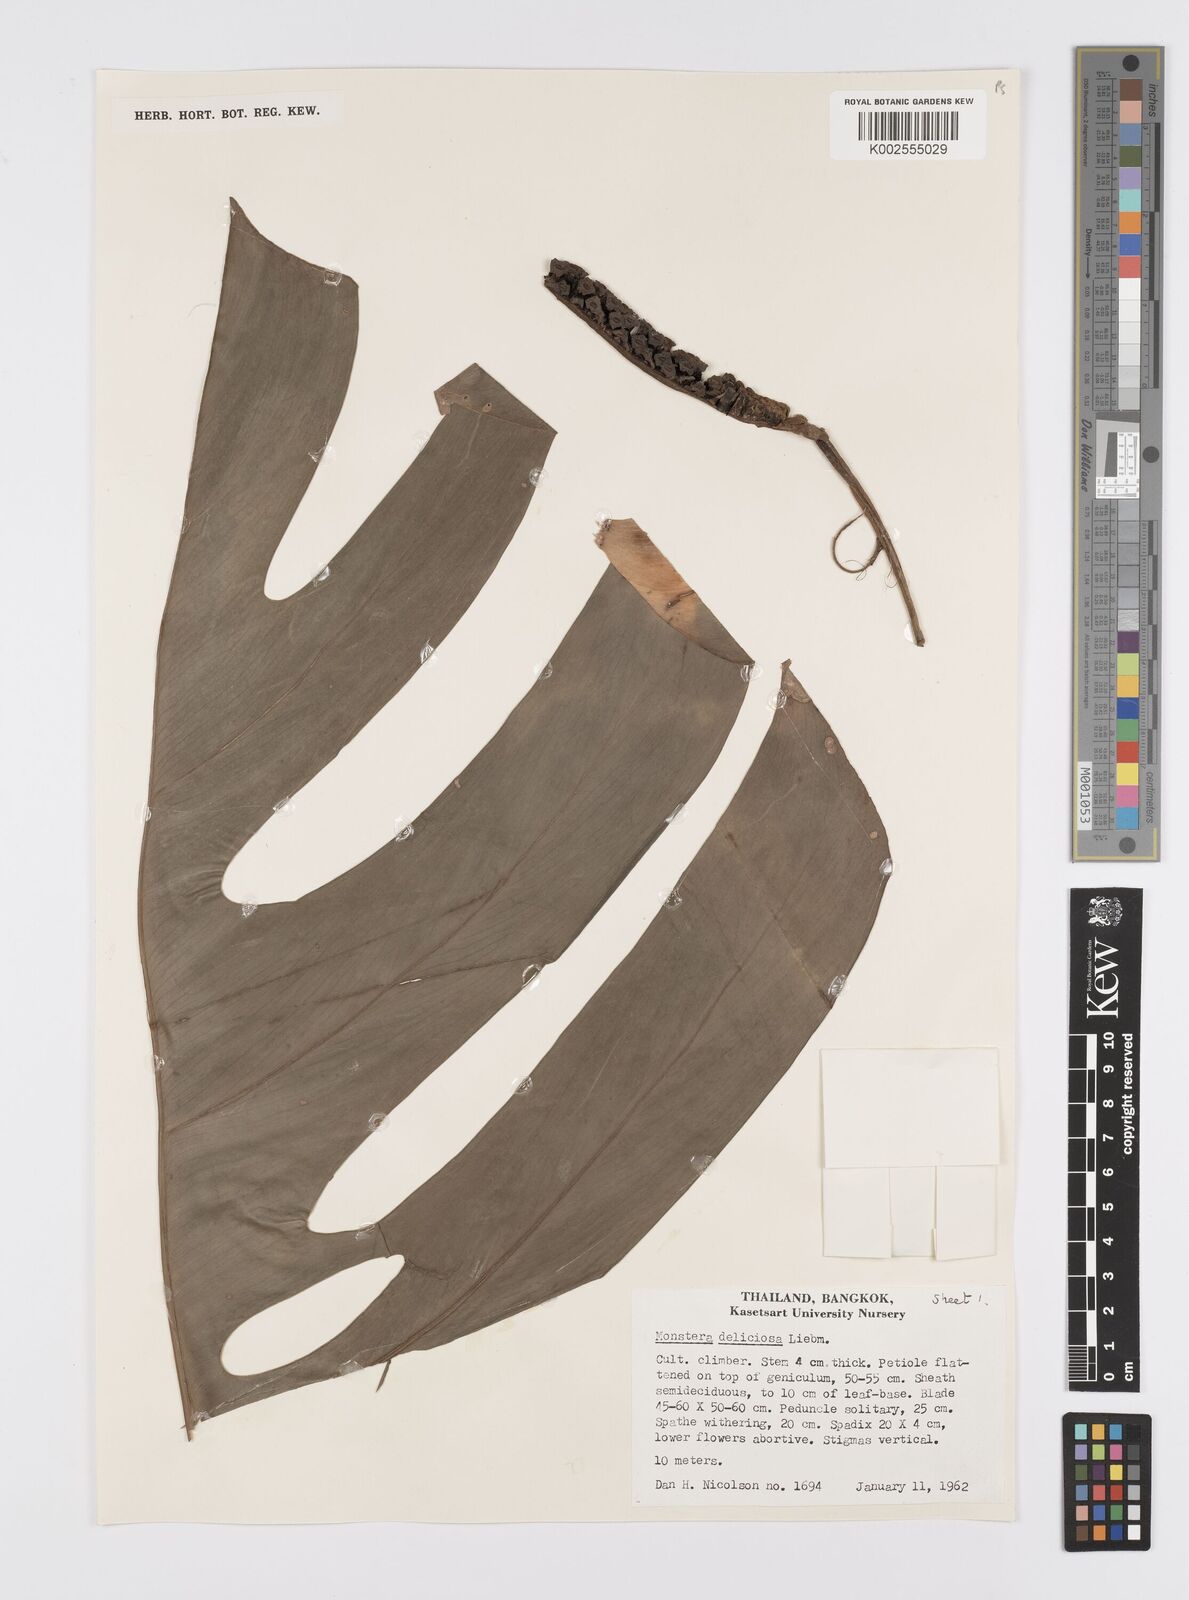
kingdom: Plantae
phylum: Tracheophyta
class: Liliopsida
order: Alismatales
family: Araceae
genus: Monstera
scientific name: Monstera deliciosa
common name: Cut-leaf-philodendron
